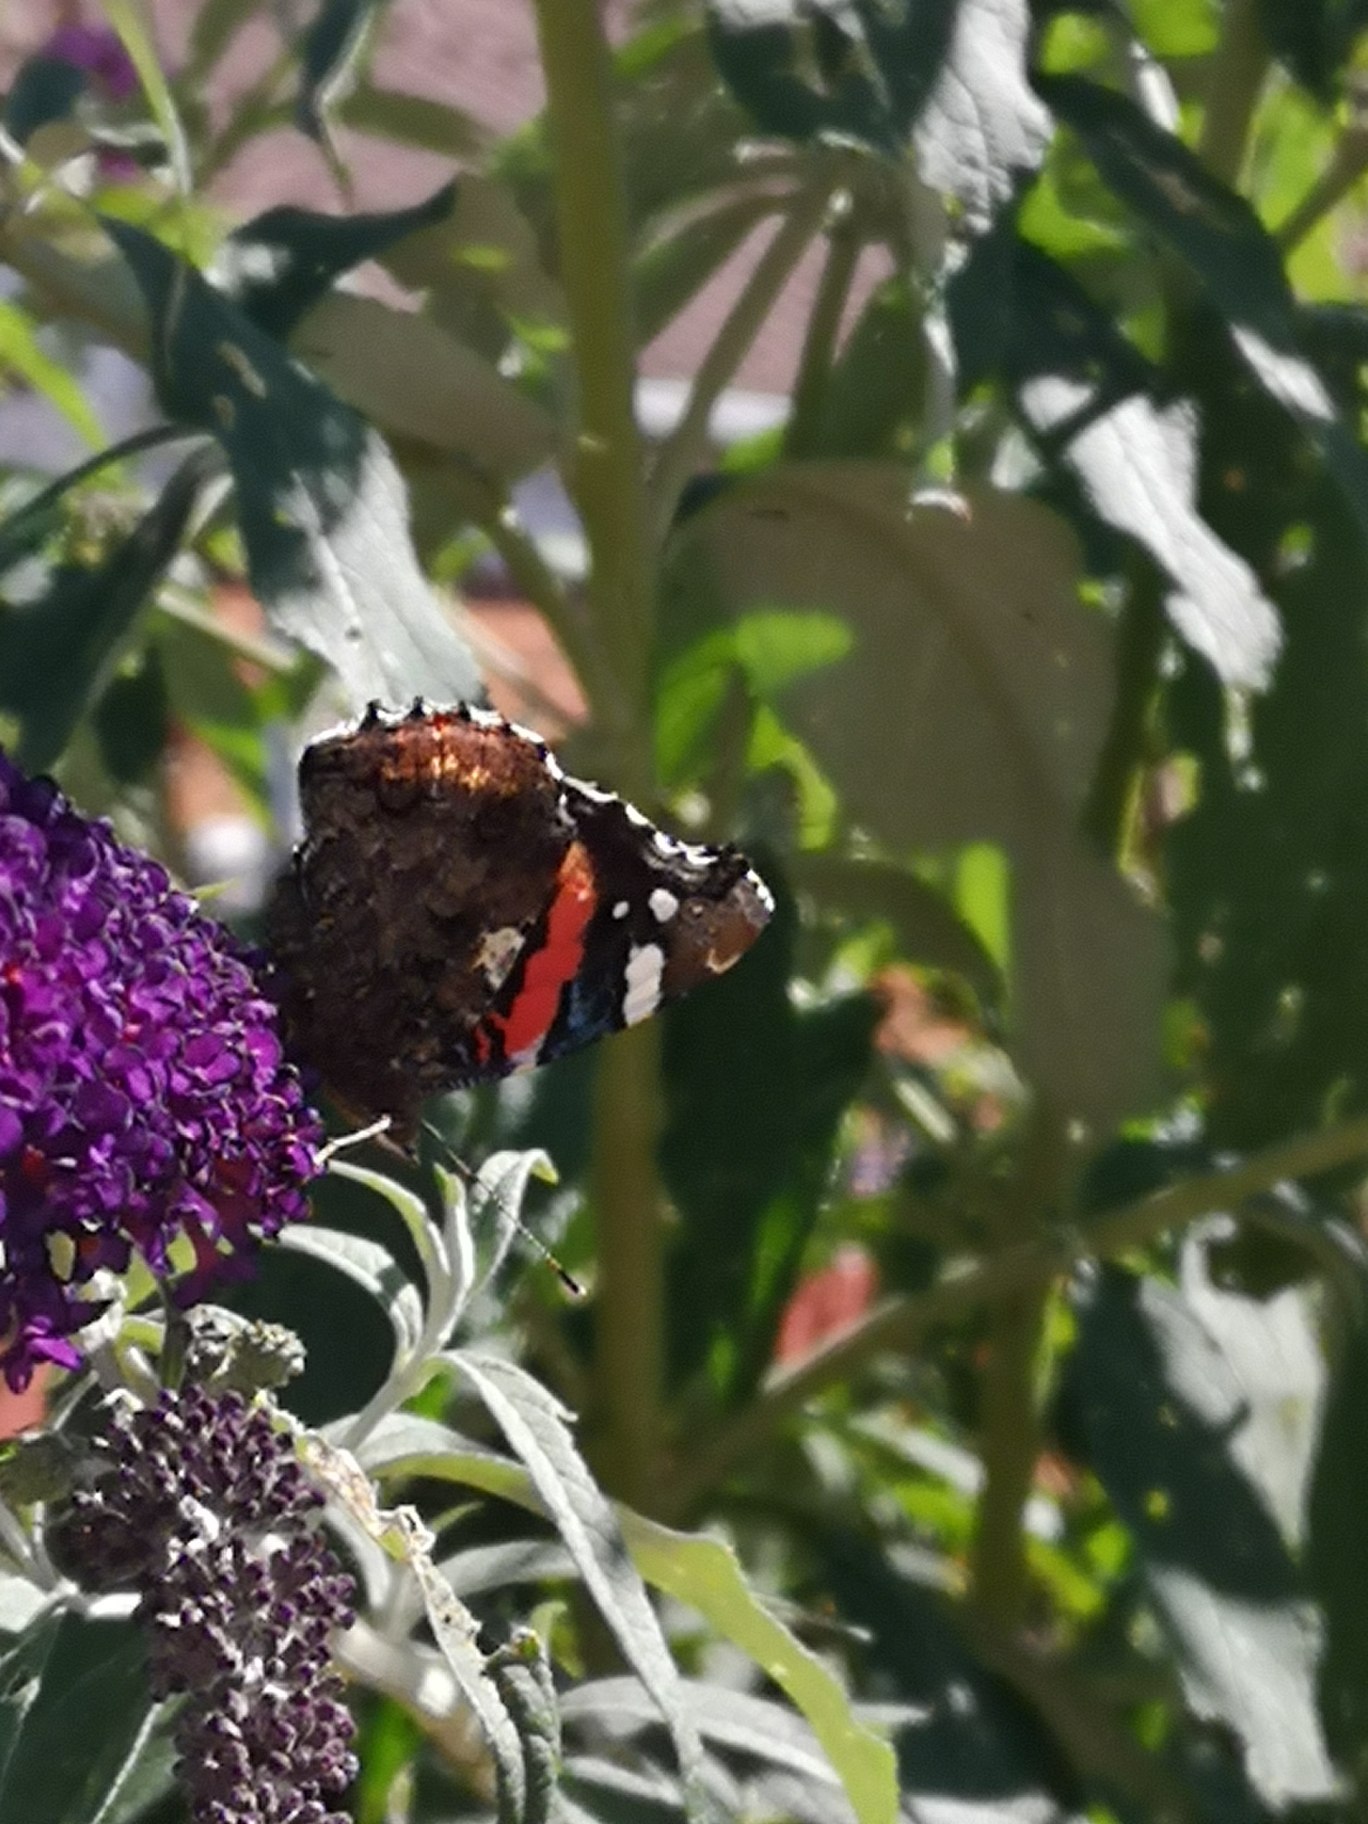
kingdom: Animalia
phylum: Arthropoda
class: Insecta
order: Lepidoptera
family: Nymphalidae
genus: Vanessa
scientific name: Vanessa atalanta
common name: Admiral
